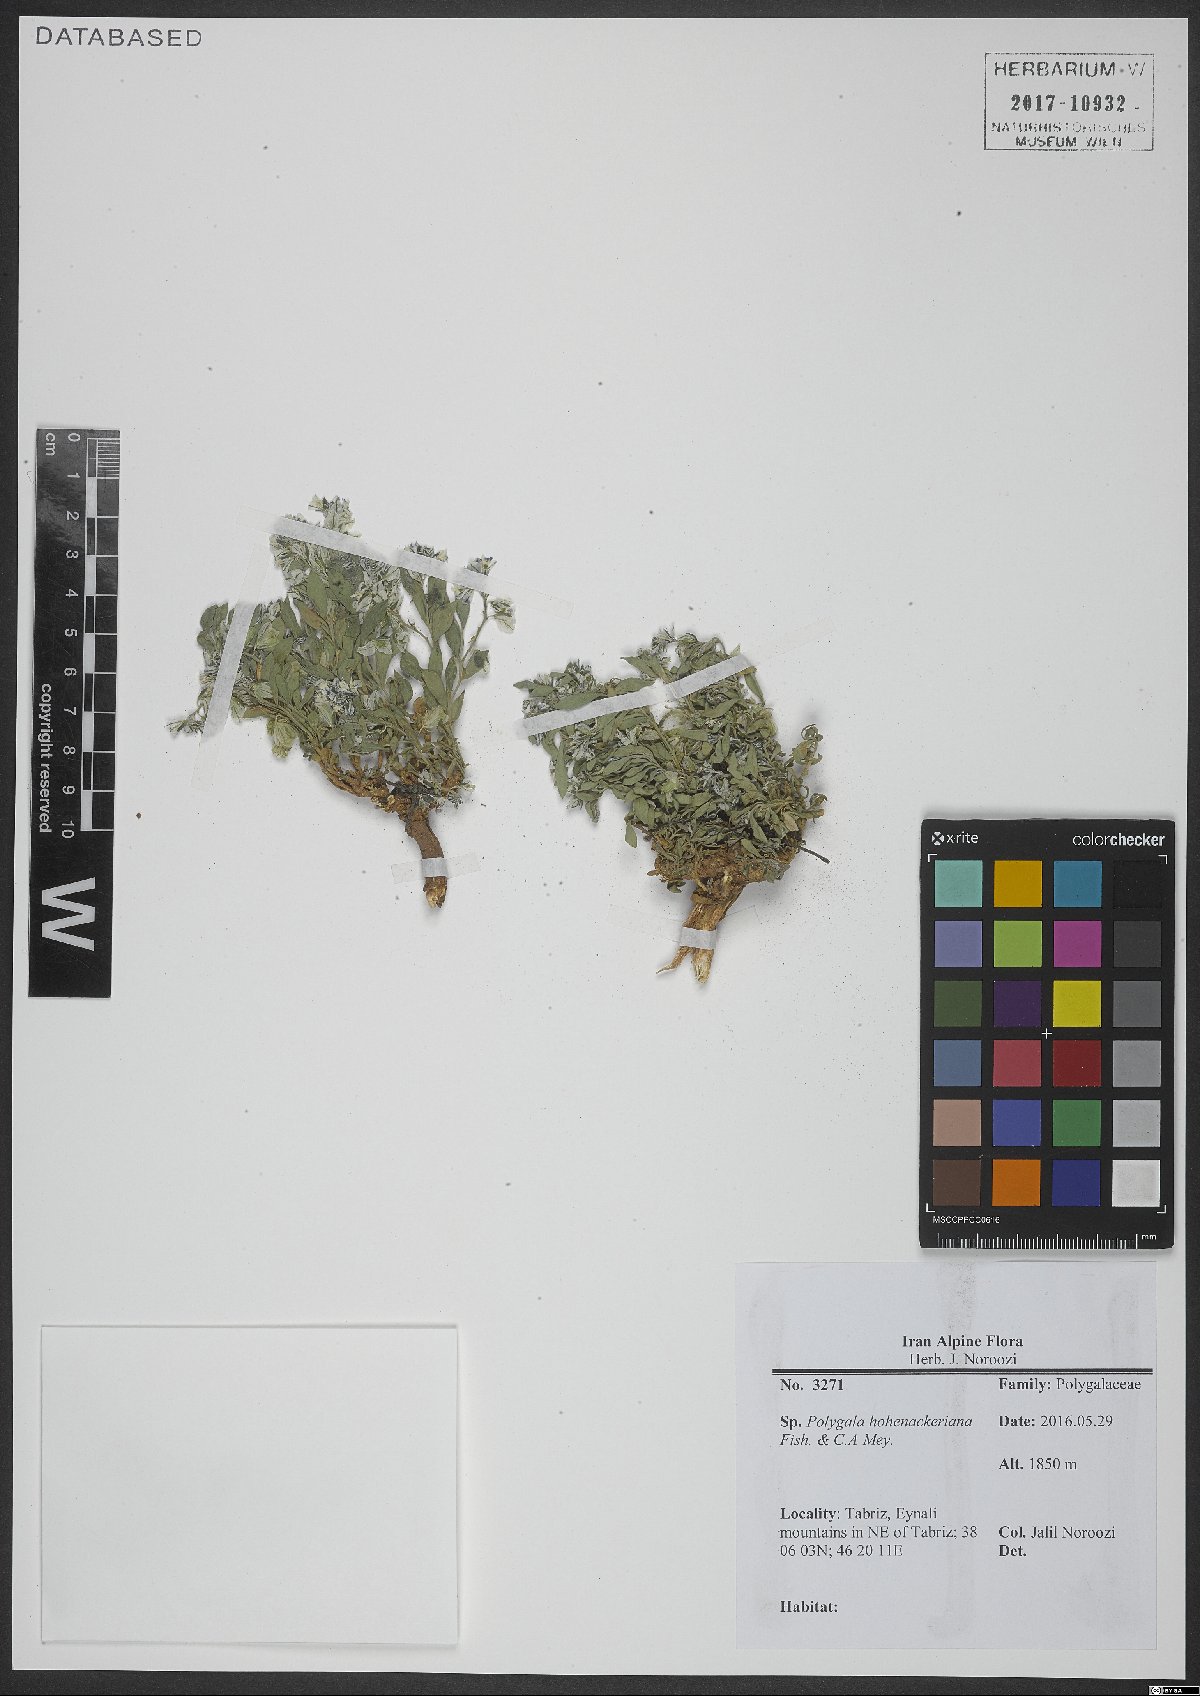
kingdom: Plantae
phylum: Tracheophyta
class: Magnoliopsida
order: Fabales
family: Polygalaceae
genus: Polygala
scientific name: Polygala hohenackeriana
